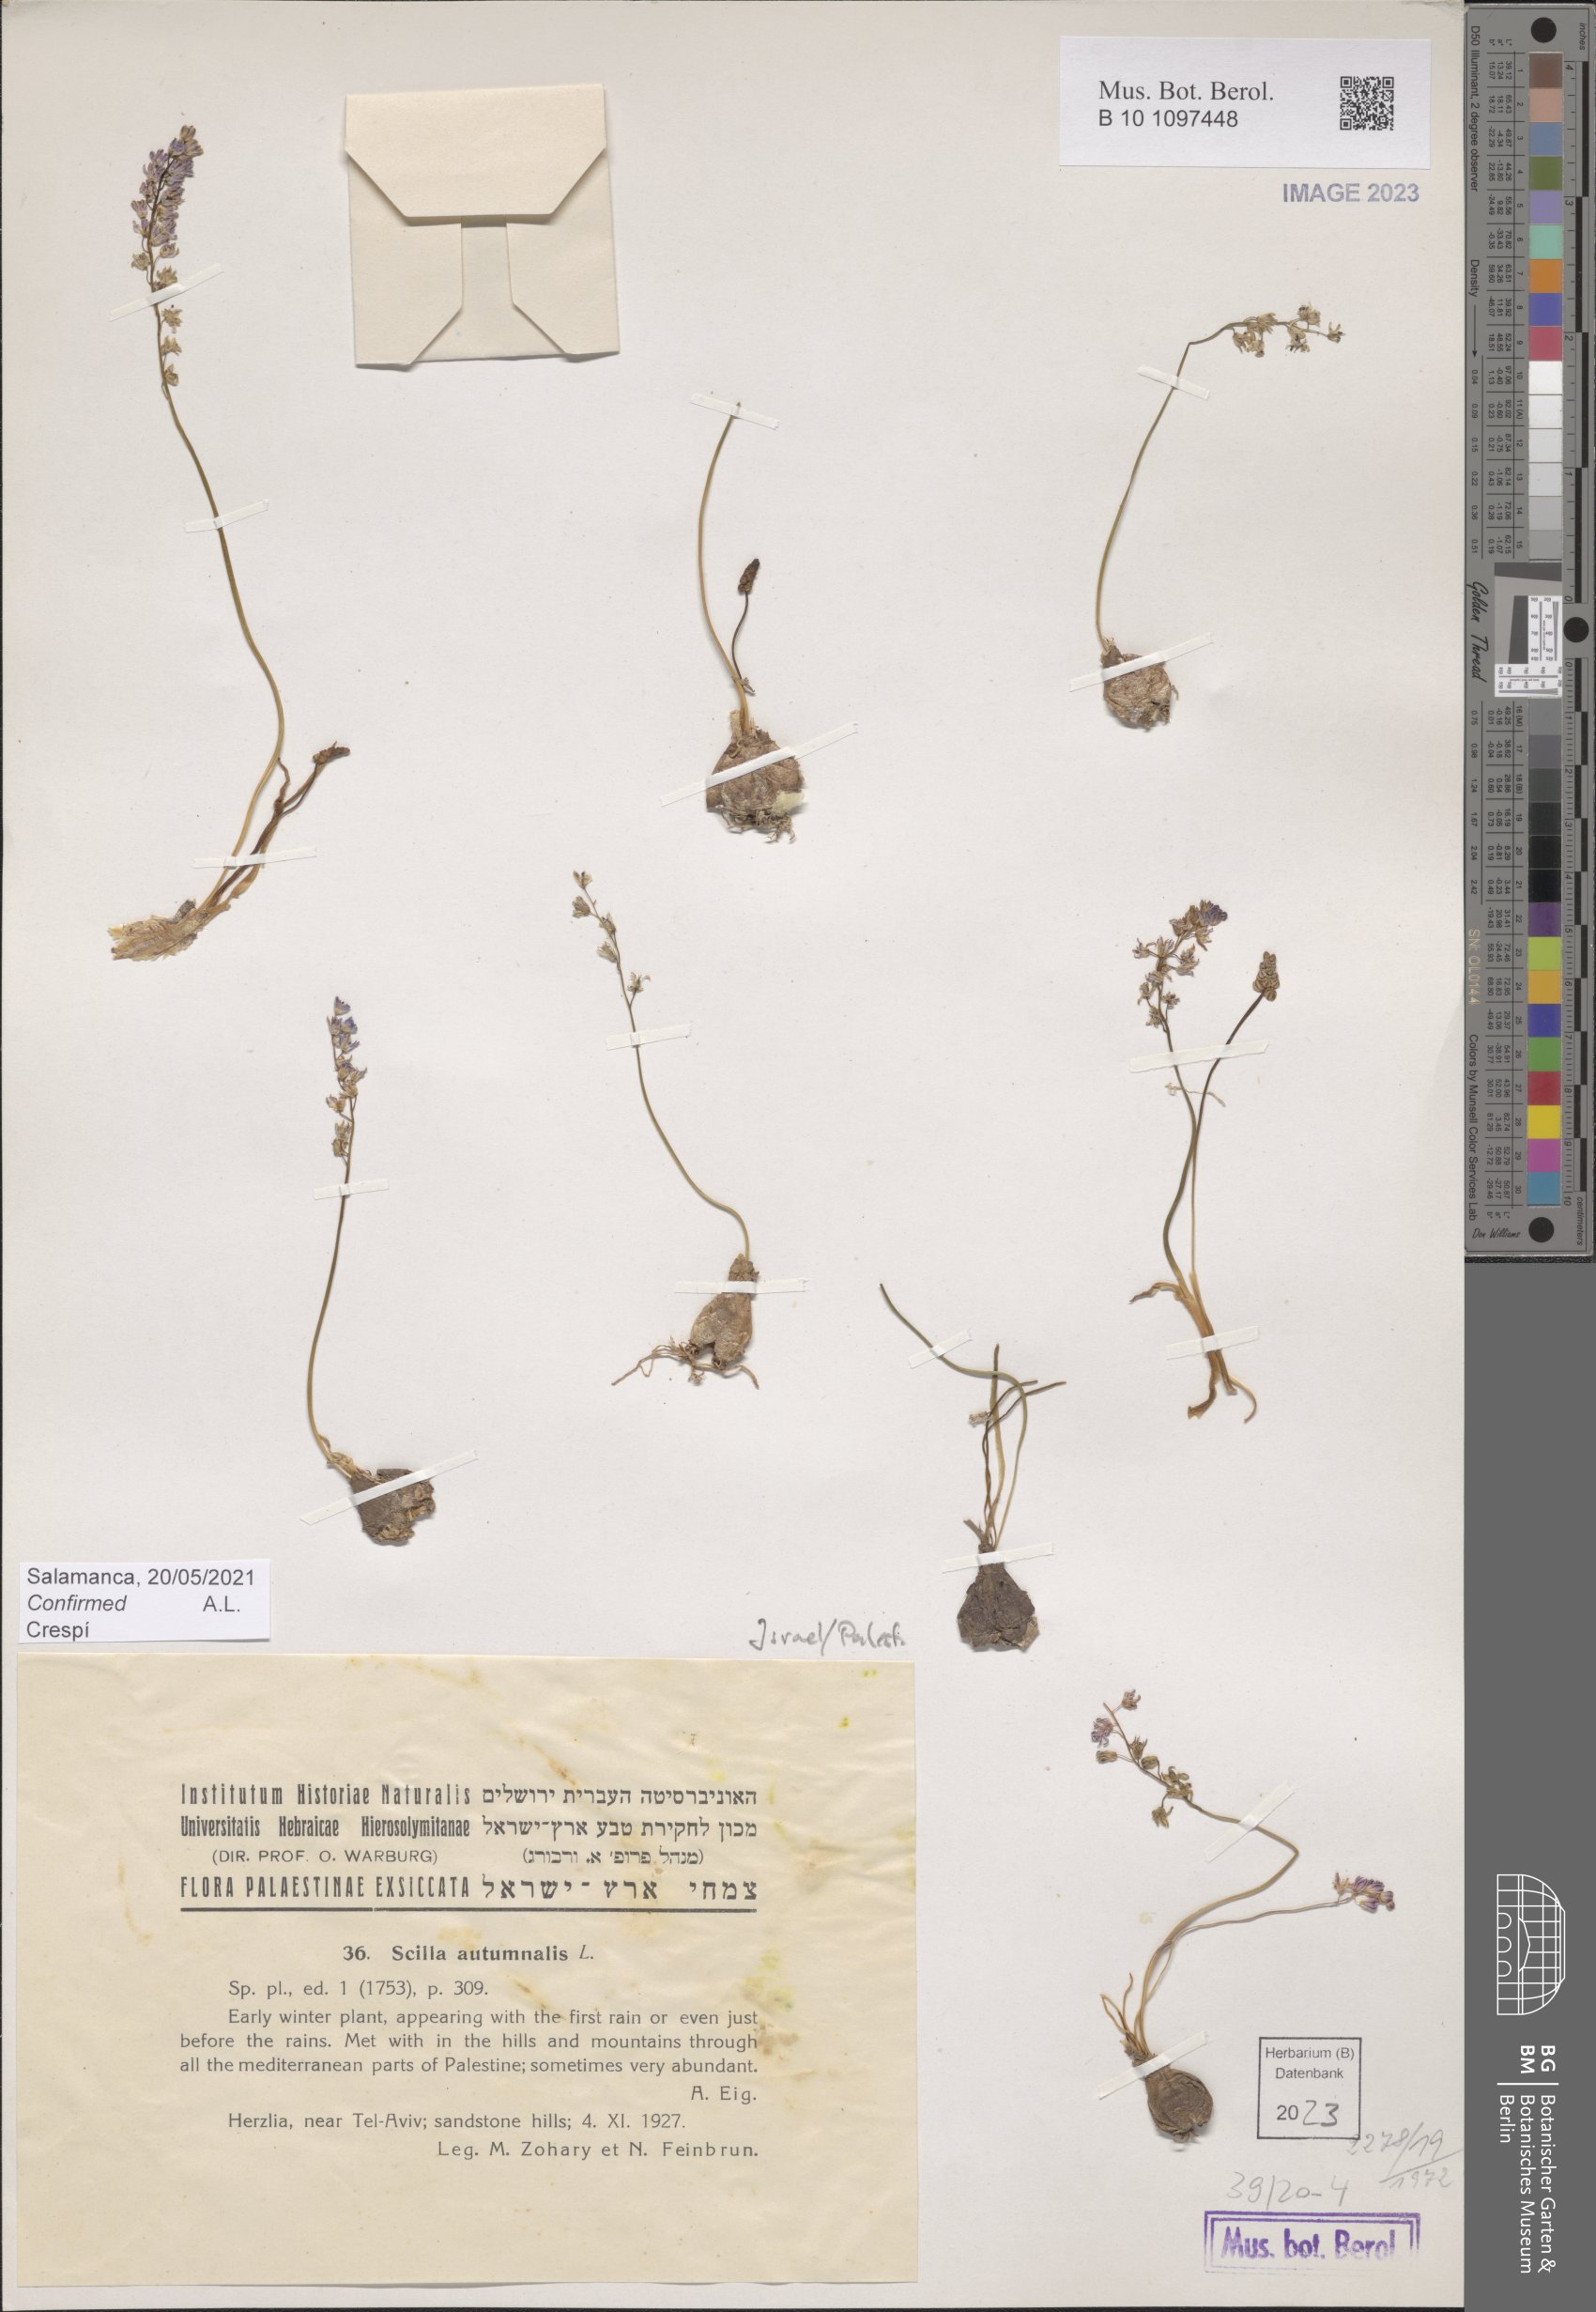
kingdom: Plantae
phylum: Tracheophyta
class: Liliopsida
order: Asparagales
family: Asparagaceae
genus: Prospero
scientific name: Prospero autumnale
